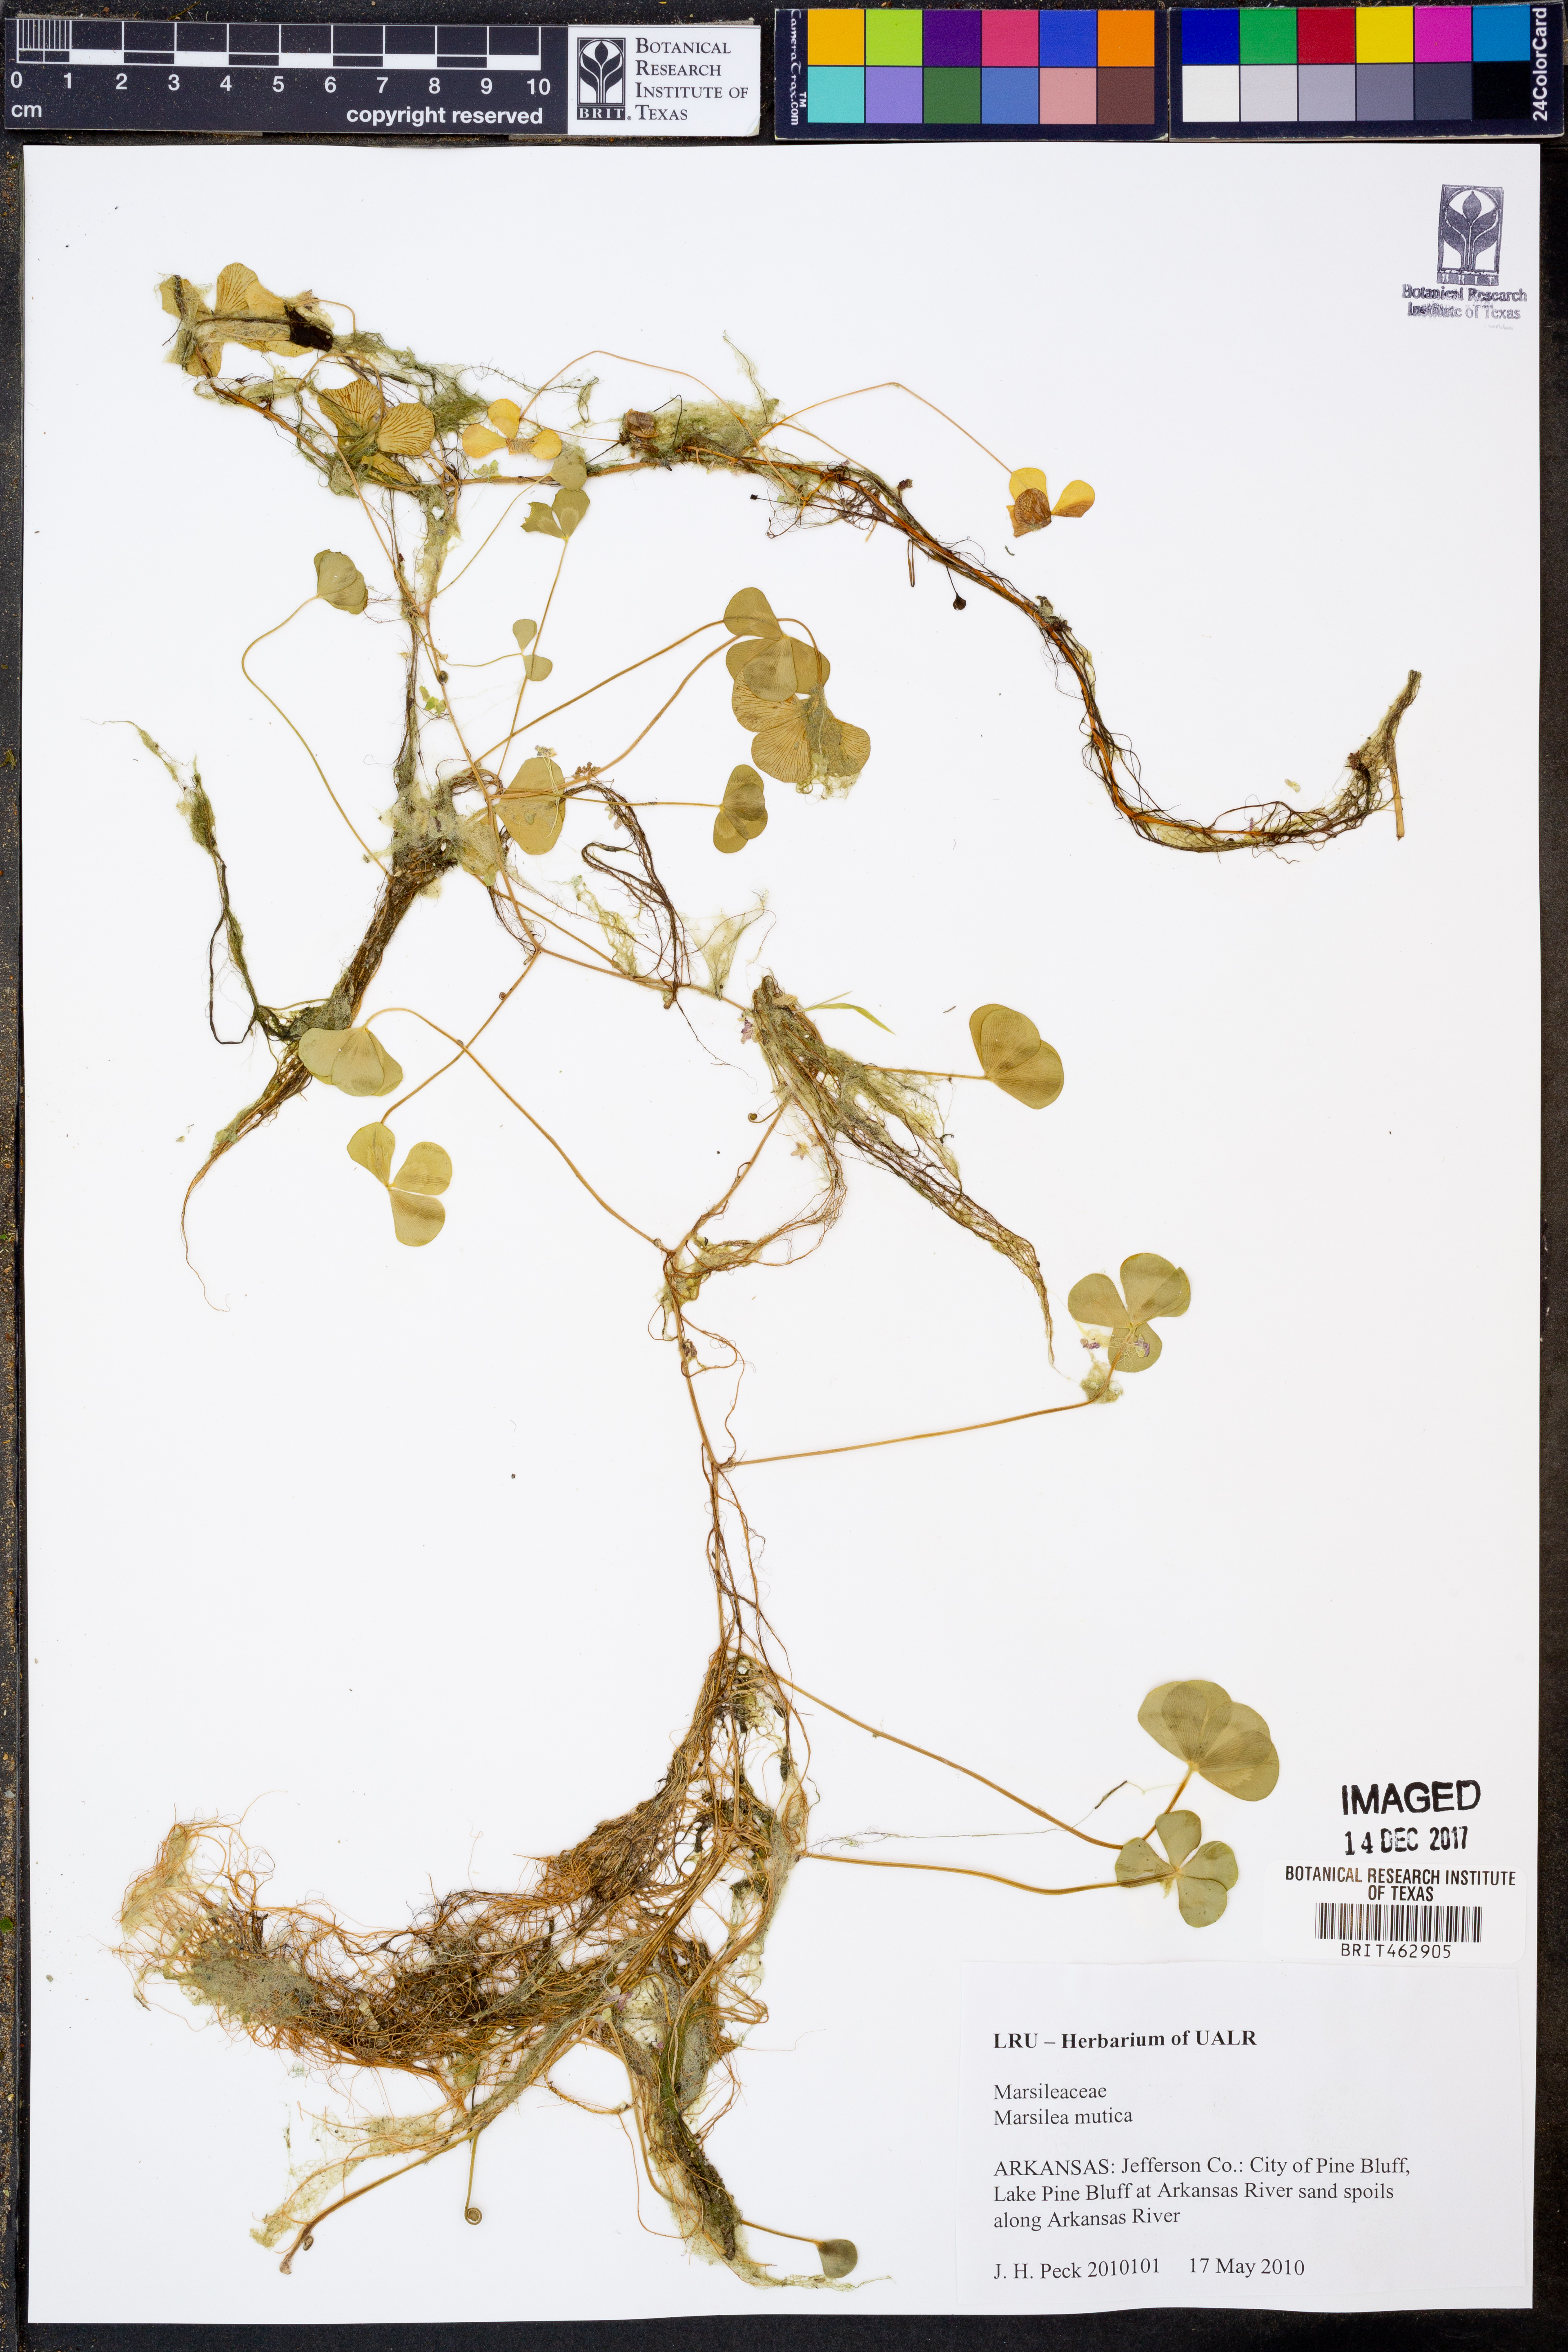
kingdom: Plantae
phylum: Tracheophyta
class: Polypodiopsida
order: Salviniales
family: Marsileaceae
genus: Marsilea
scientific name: Marsilea mutica
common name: Australian water-clover
